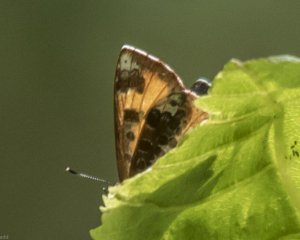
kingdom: Animalia
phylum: Arthropoda
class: Insecta
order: Lepidoptera
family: Lycaenidae
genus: Feniseca
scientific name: Feniseca tarquinius
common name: Harvester
